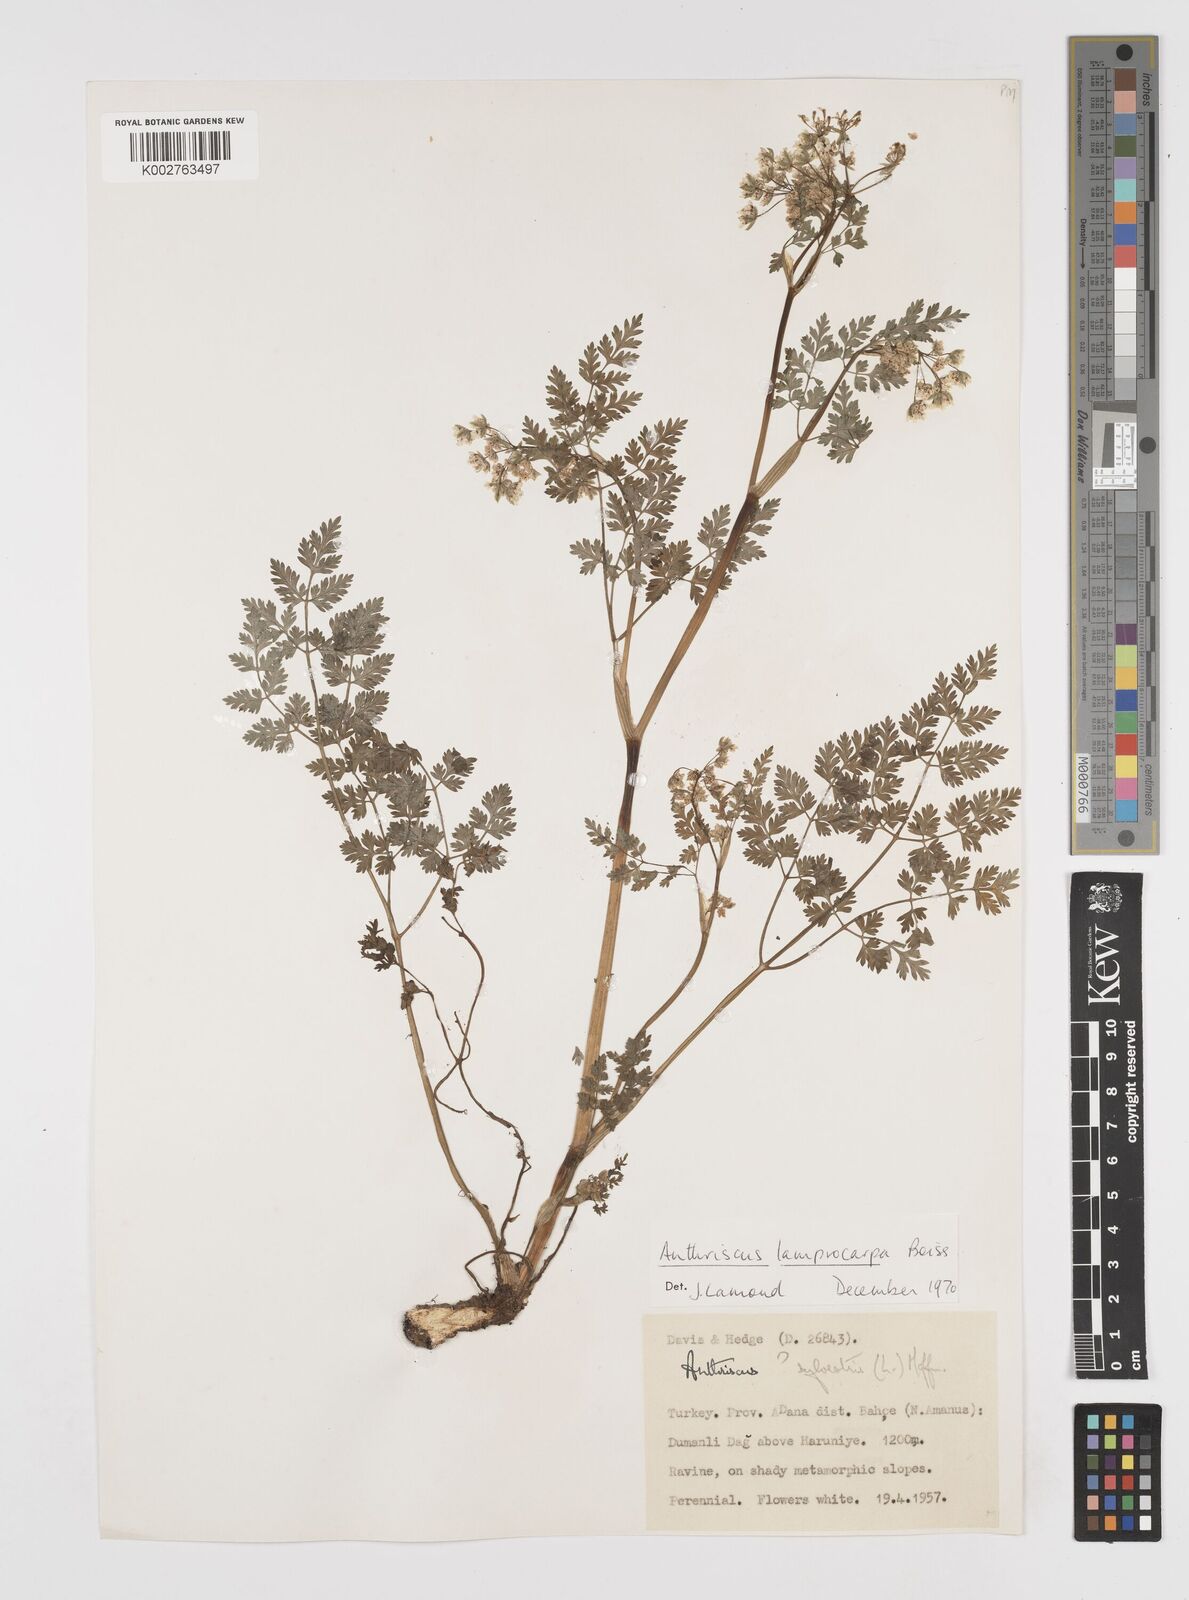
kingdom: Plantae
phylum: Tracheophyta
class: Magnoliopsida
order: Apiales
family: Apiaceae
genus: Anthriscus
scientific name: Anthriscus lamprocarpa
